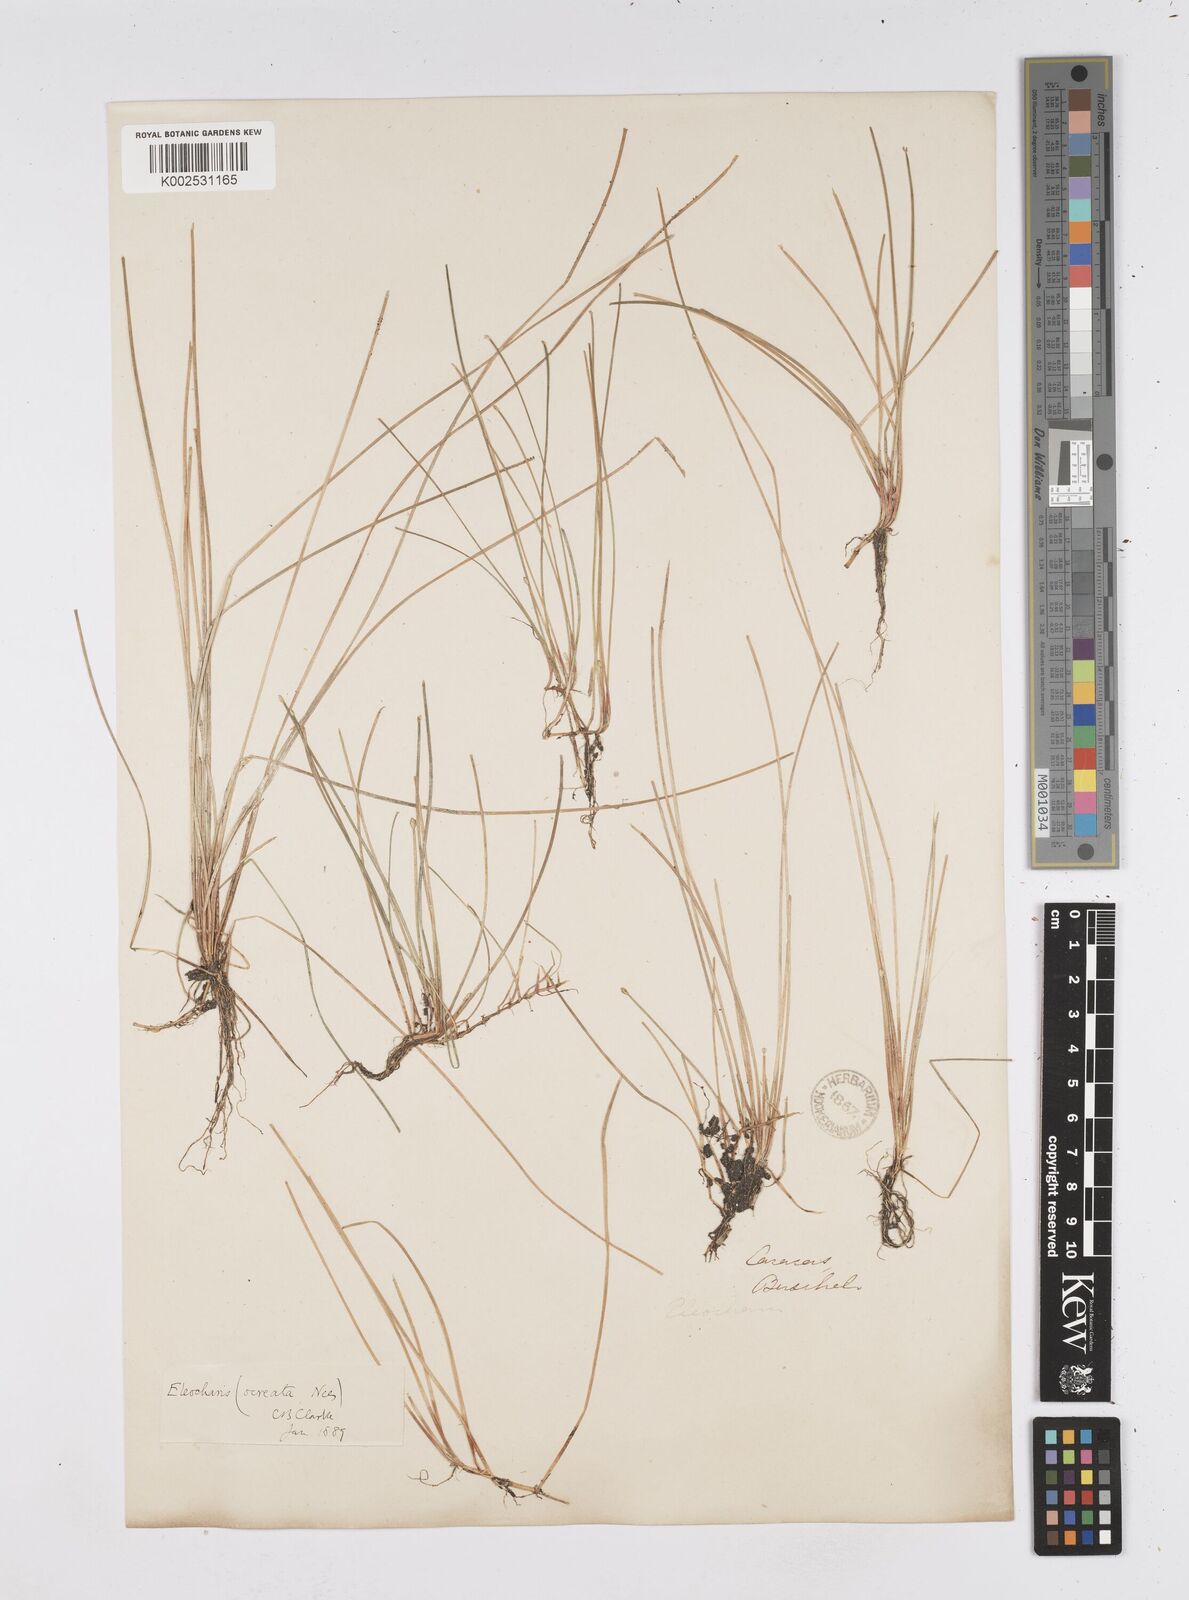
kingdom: Plantae
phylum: Tracheophyta
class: Liliopsida
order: Poales
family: Cyperaceae
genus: Eleocharis
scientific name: Eleocharis flavescens
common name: Yellow spikerush
